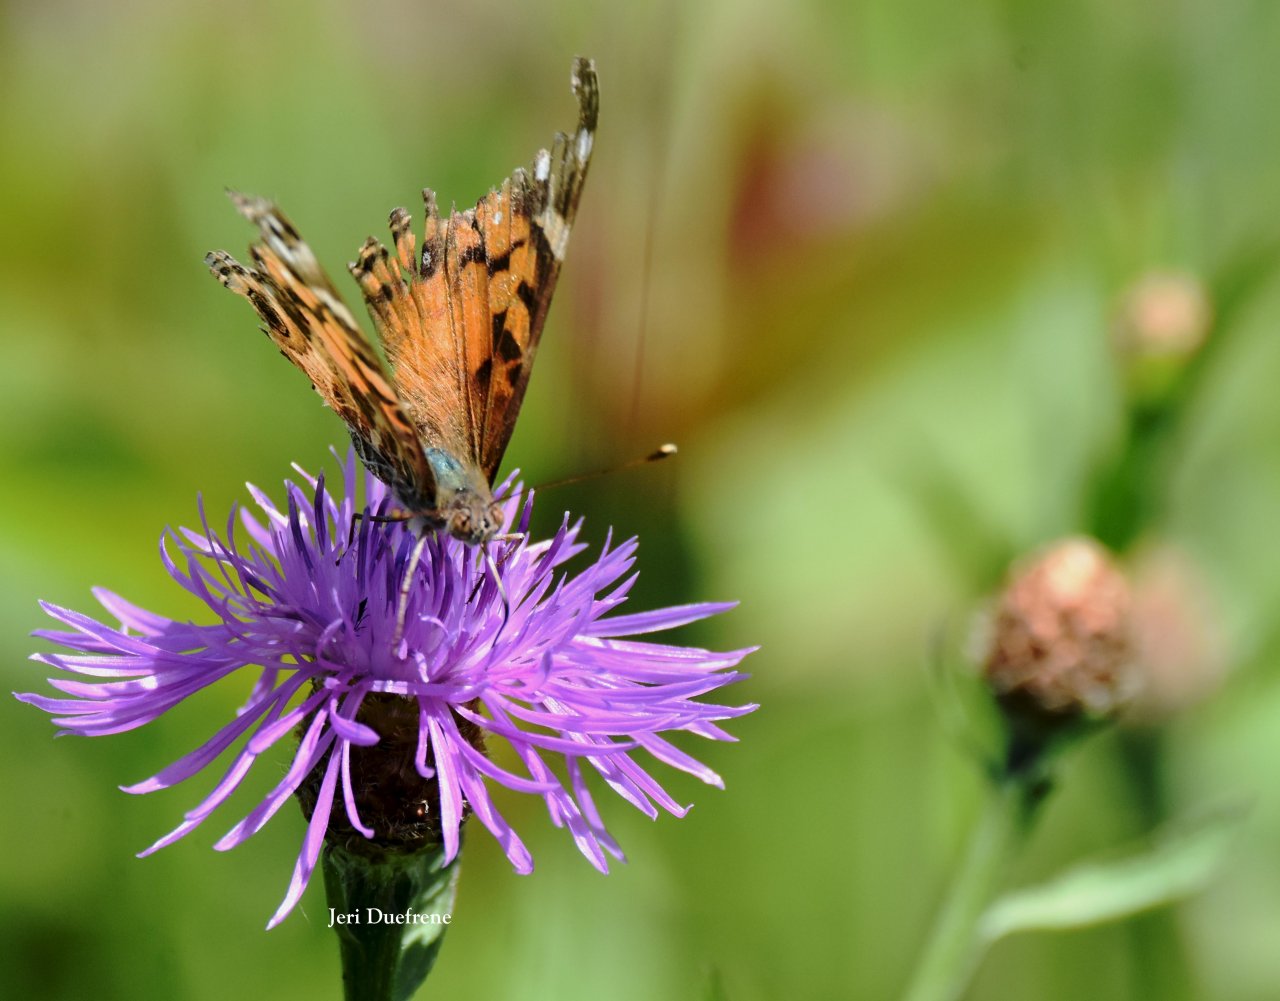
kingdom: Animalia
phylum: Arthropoda
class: Insecta
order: Lepidoptera
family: Nymphalidae
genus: Vanessa
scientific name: Vanessa virginiensis
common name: American Lady
